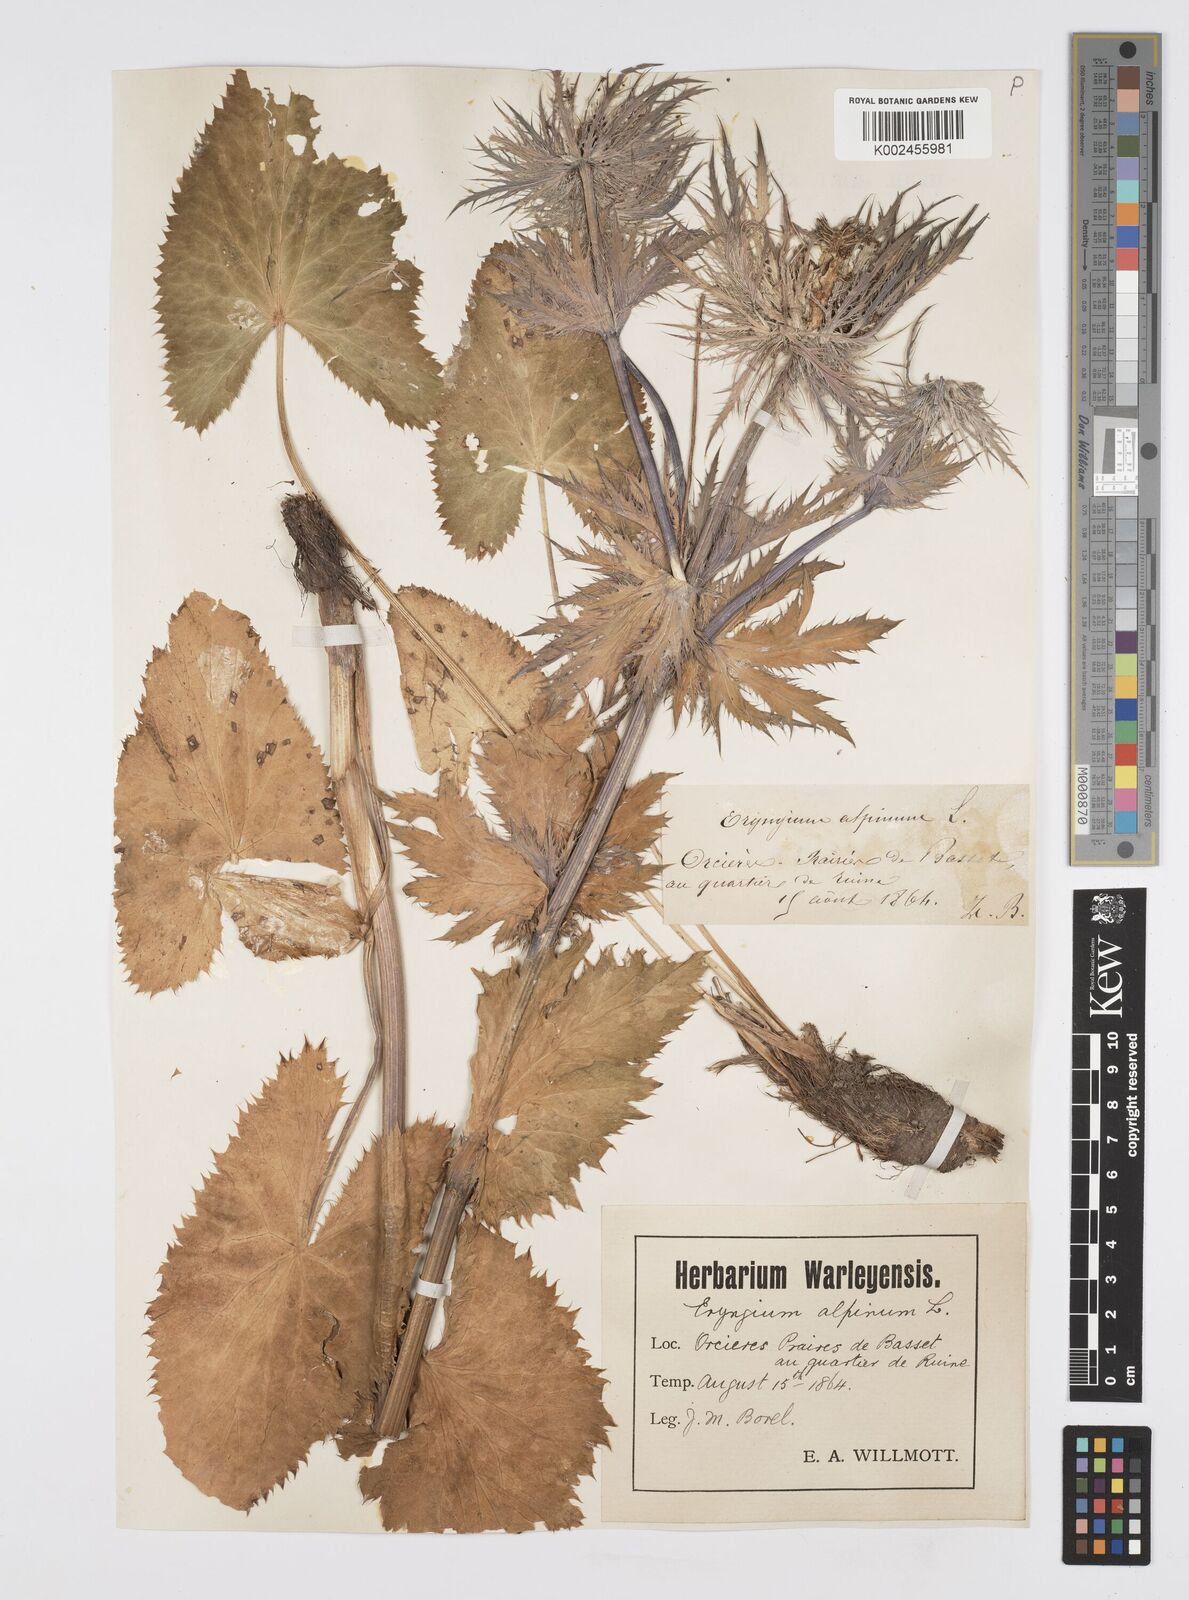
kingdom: Plantae
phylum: Tracheophyta
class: Magnoliopsida
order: Apiales
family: Apiaceae
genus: Eryngium
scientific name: Eryngium alpinum
